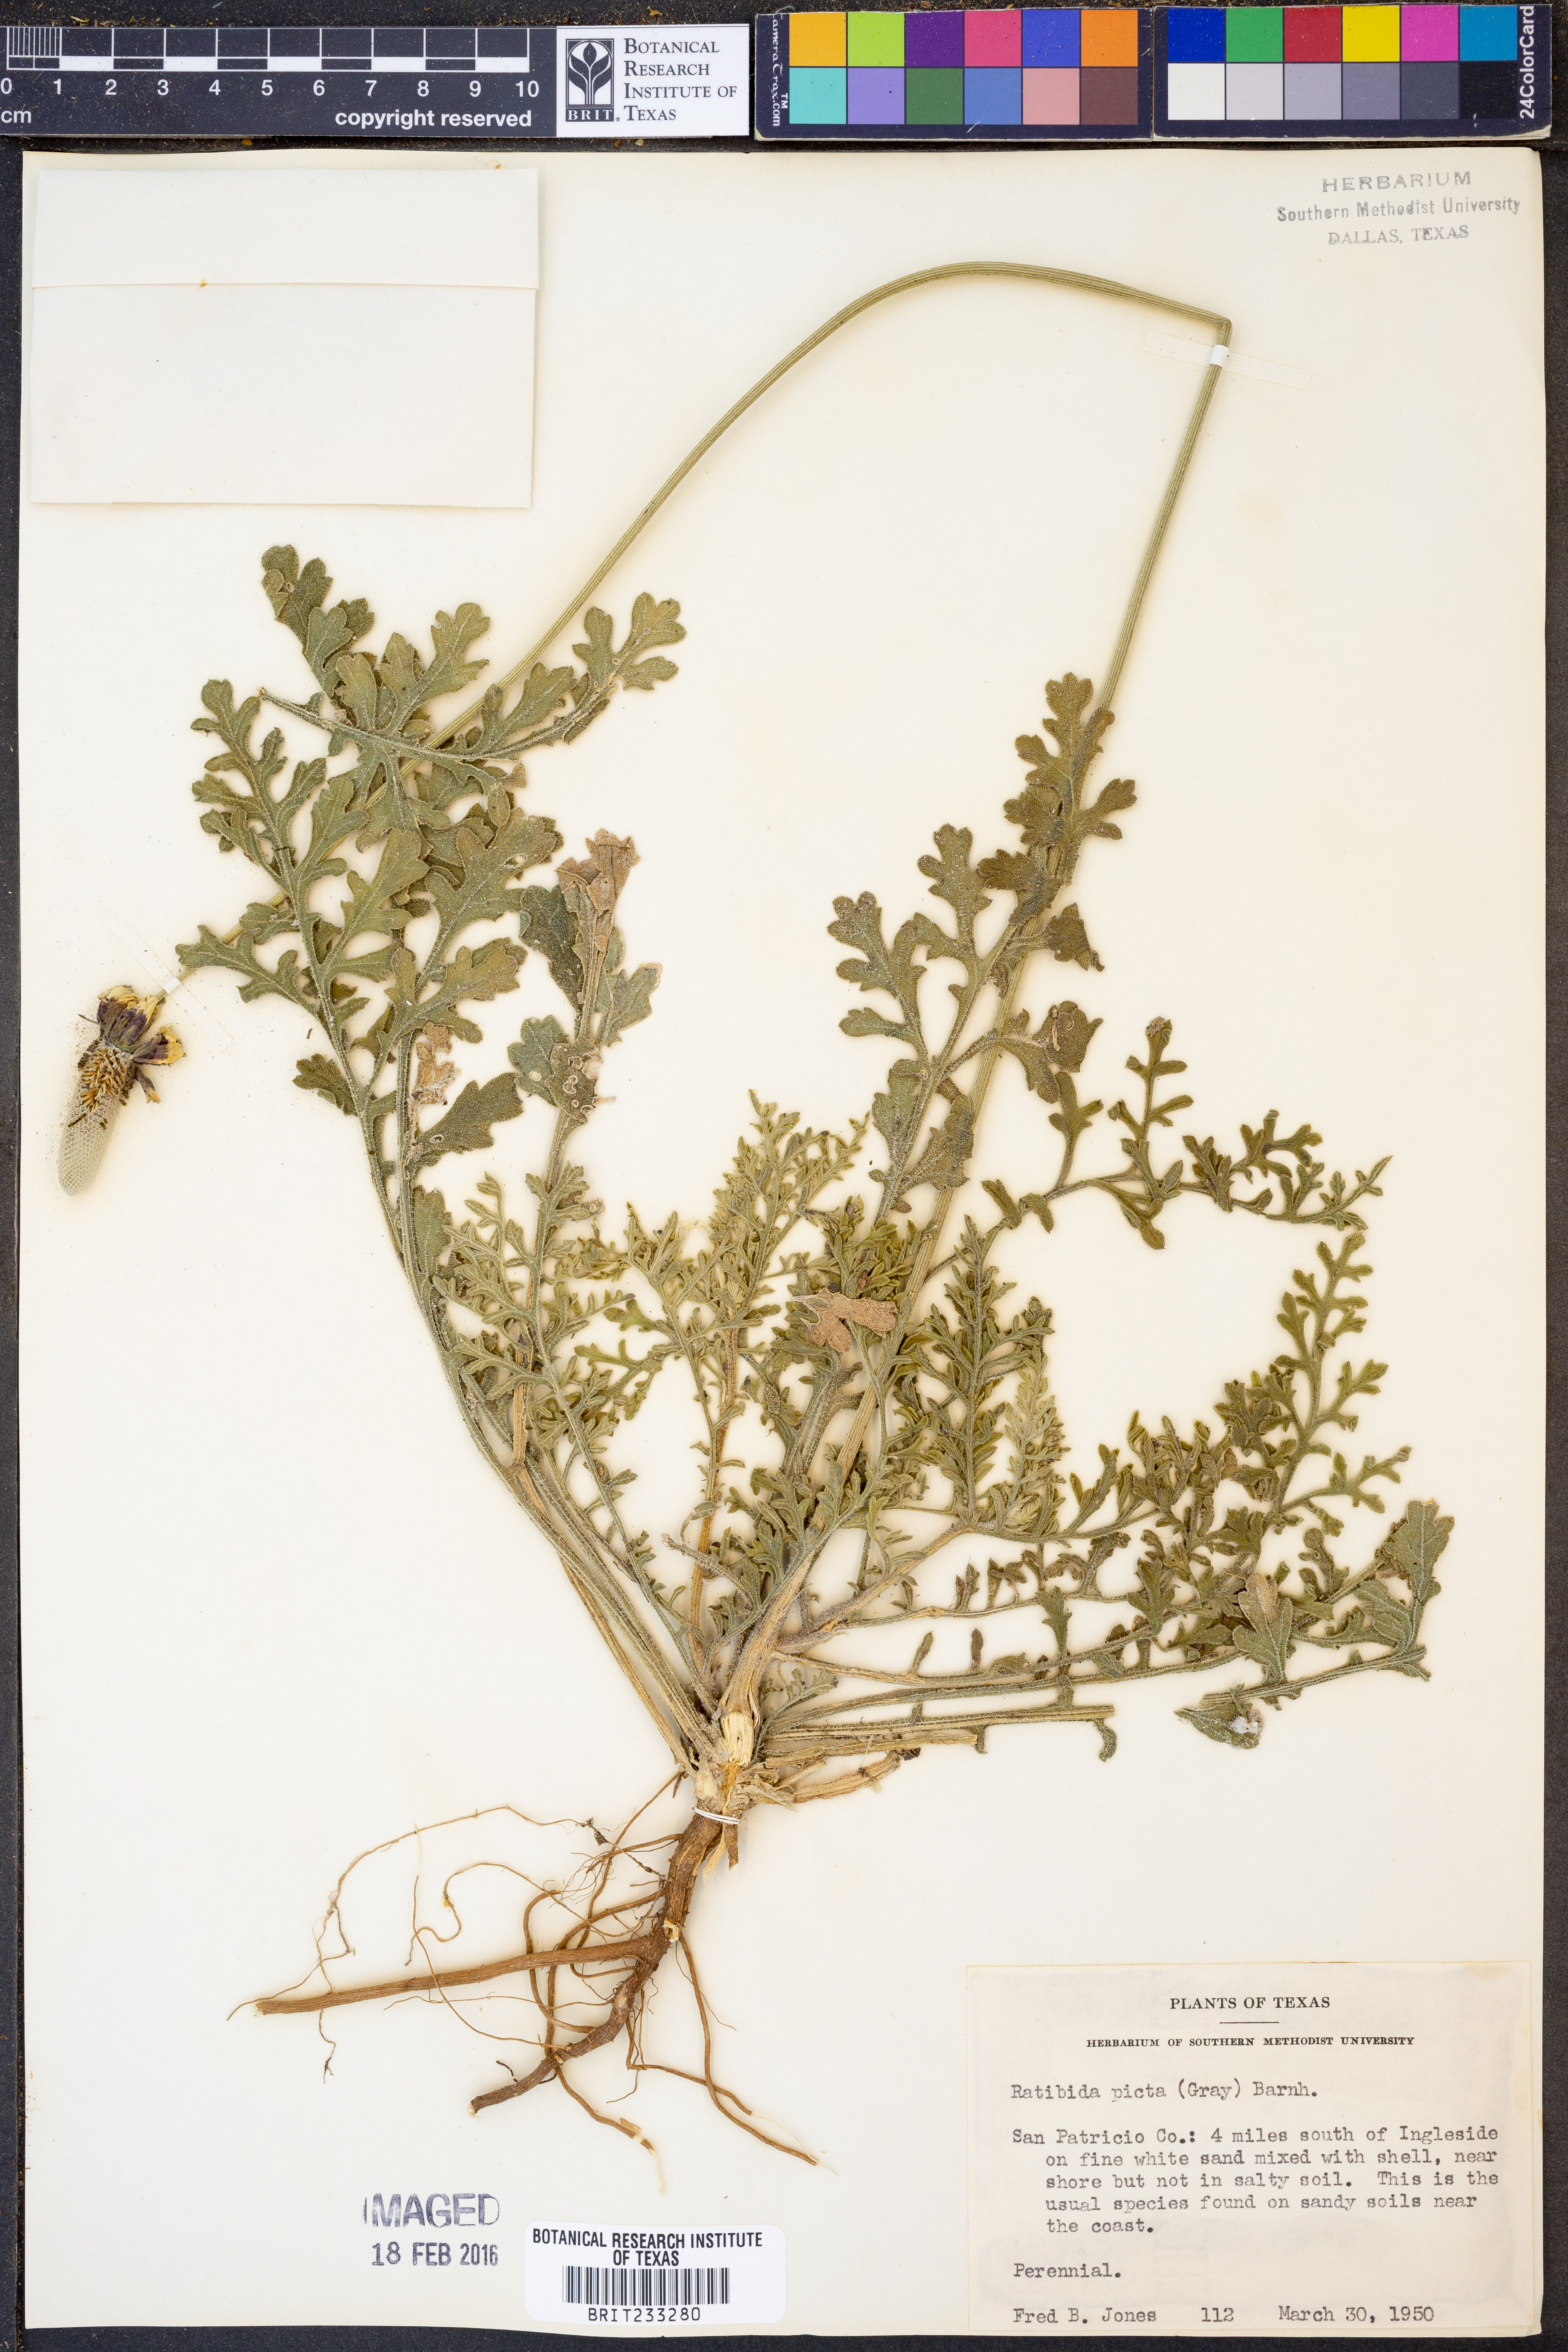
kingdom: Plantae
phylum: Tracheophyta
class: Magnoliopsida
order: Asterales
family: Asteraceae
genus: Ratibida
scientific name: Ratibida peduncularis
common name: Naked prairie-coneflower
